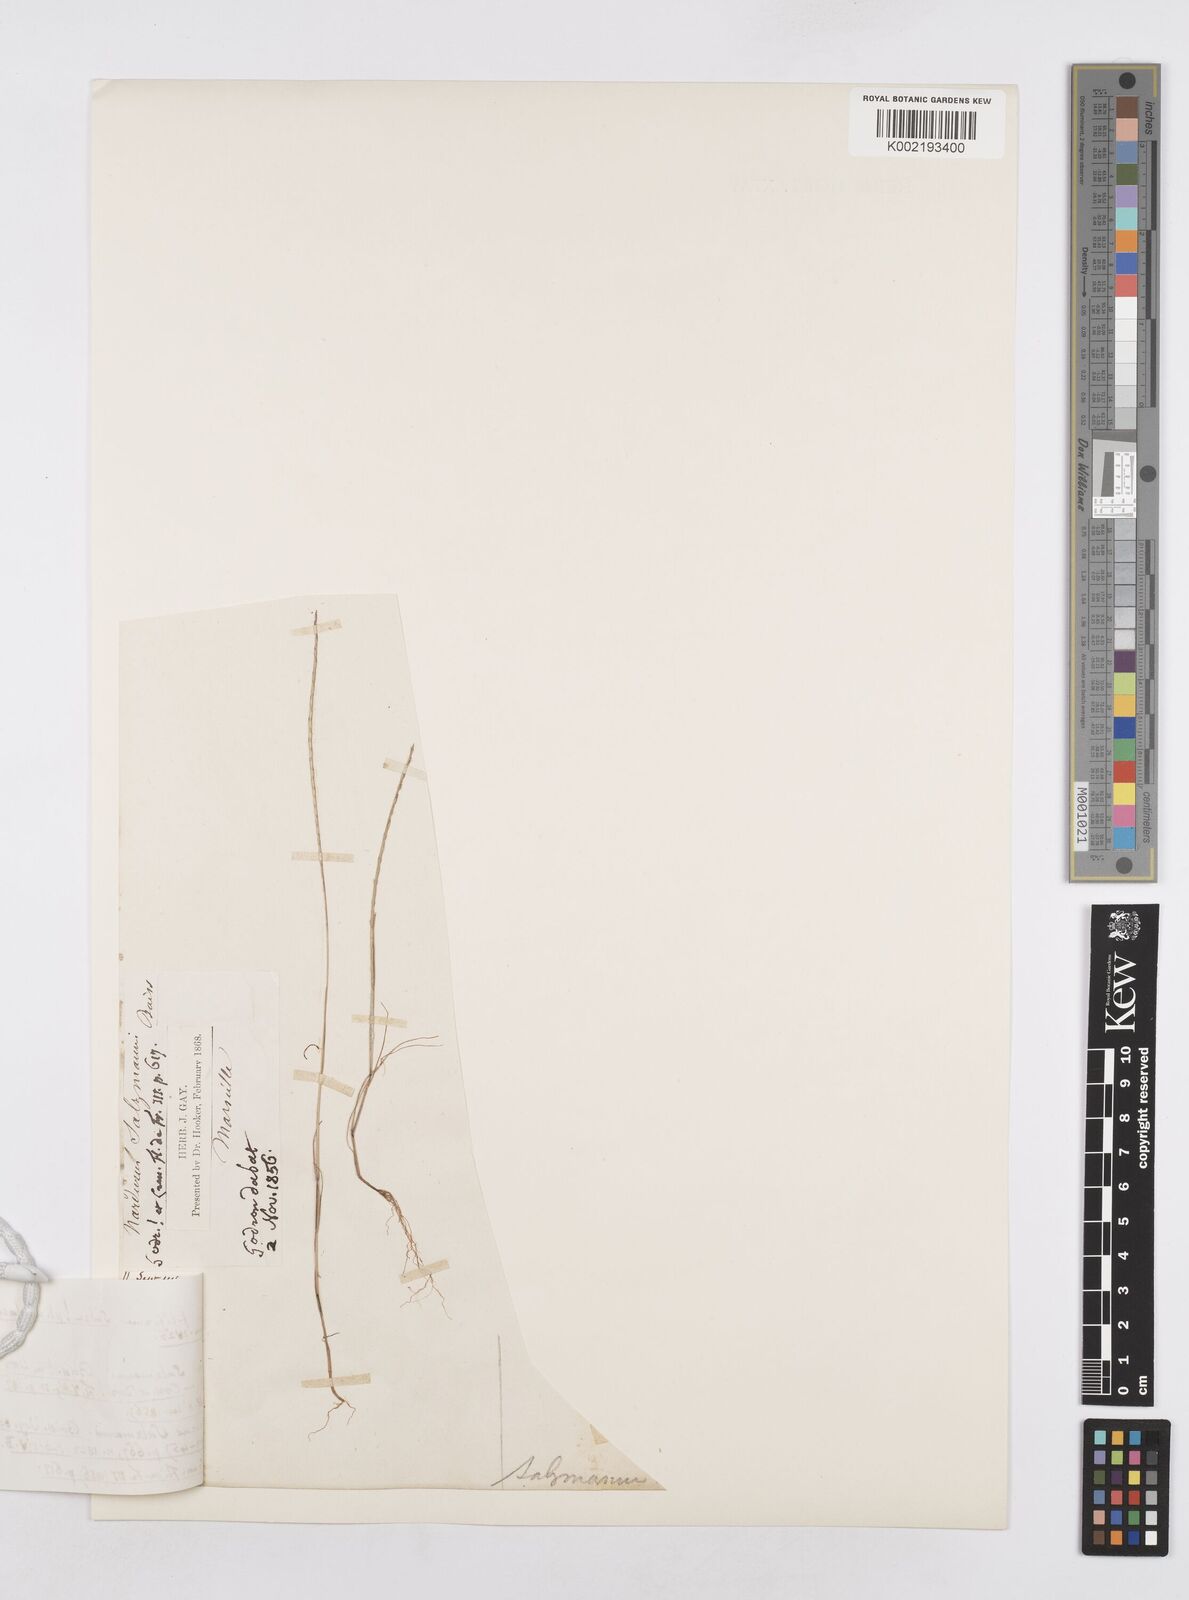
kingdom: Plantae
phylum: Tracheophyta
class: Liliopsida
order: Poales
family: Poaceae
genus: Festuca
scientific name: Festuca salzmannii
